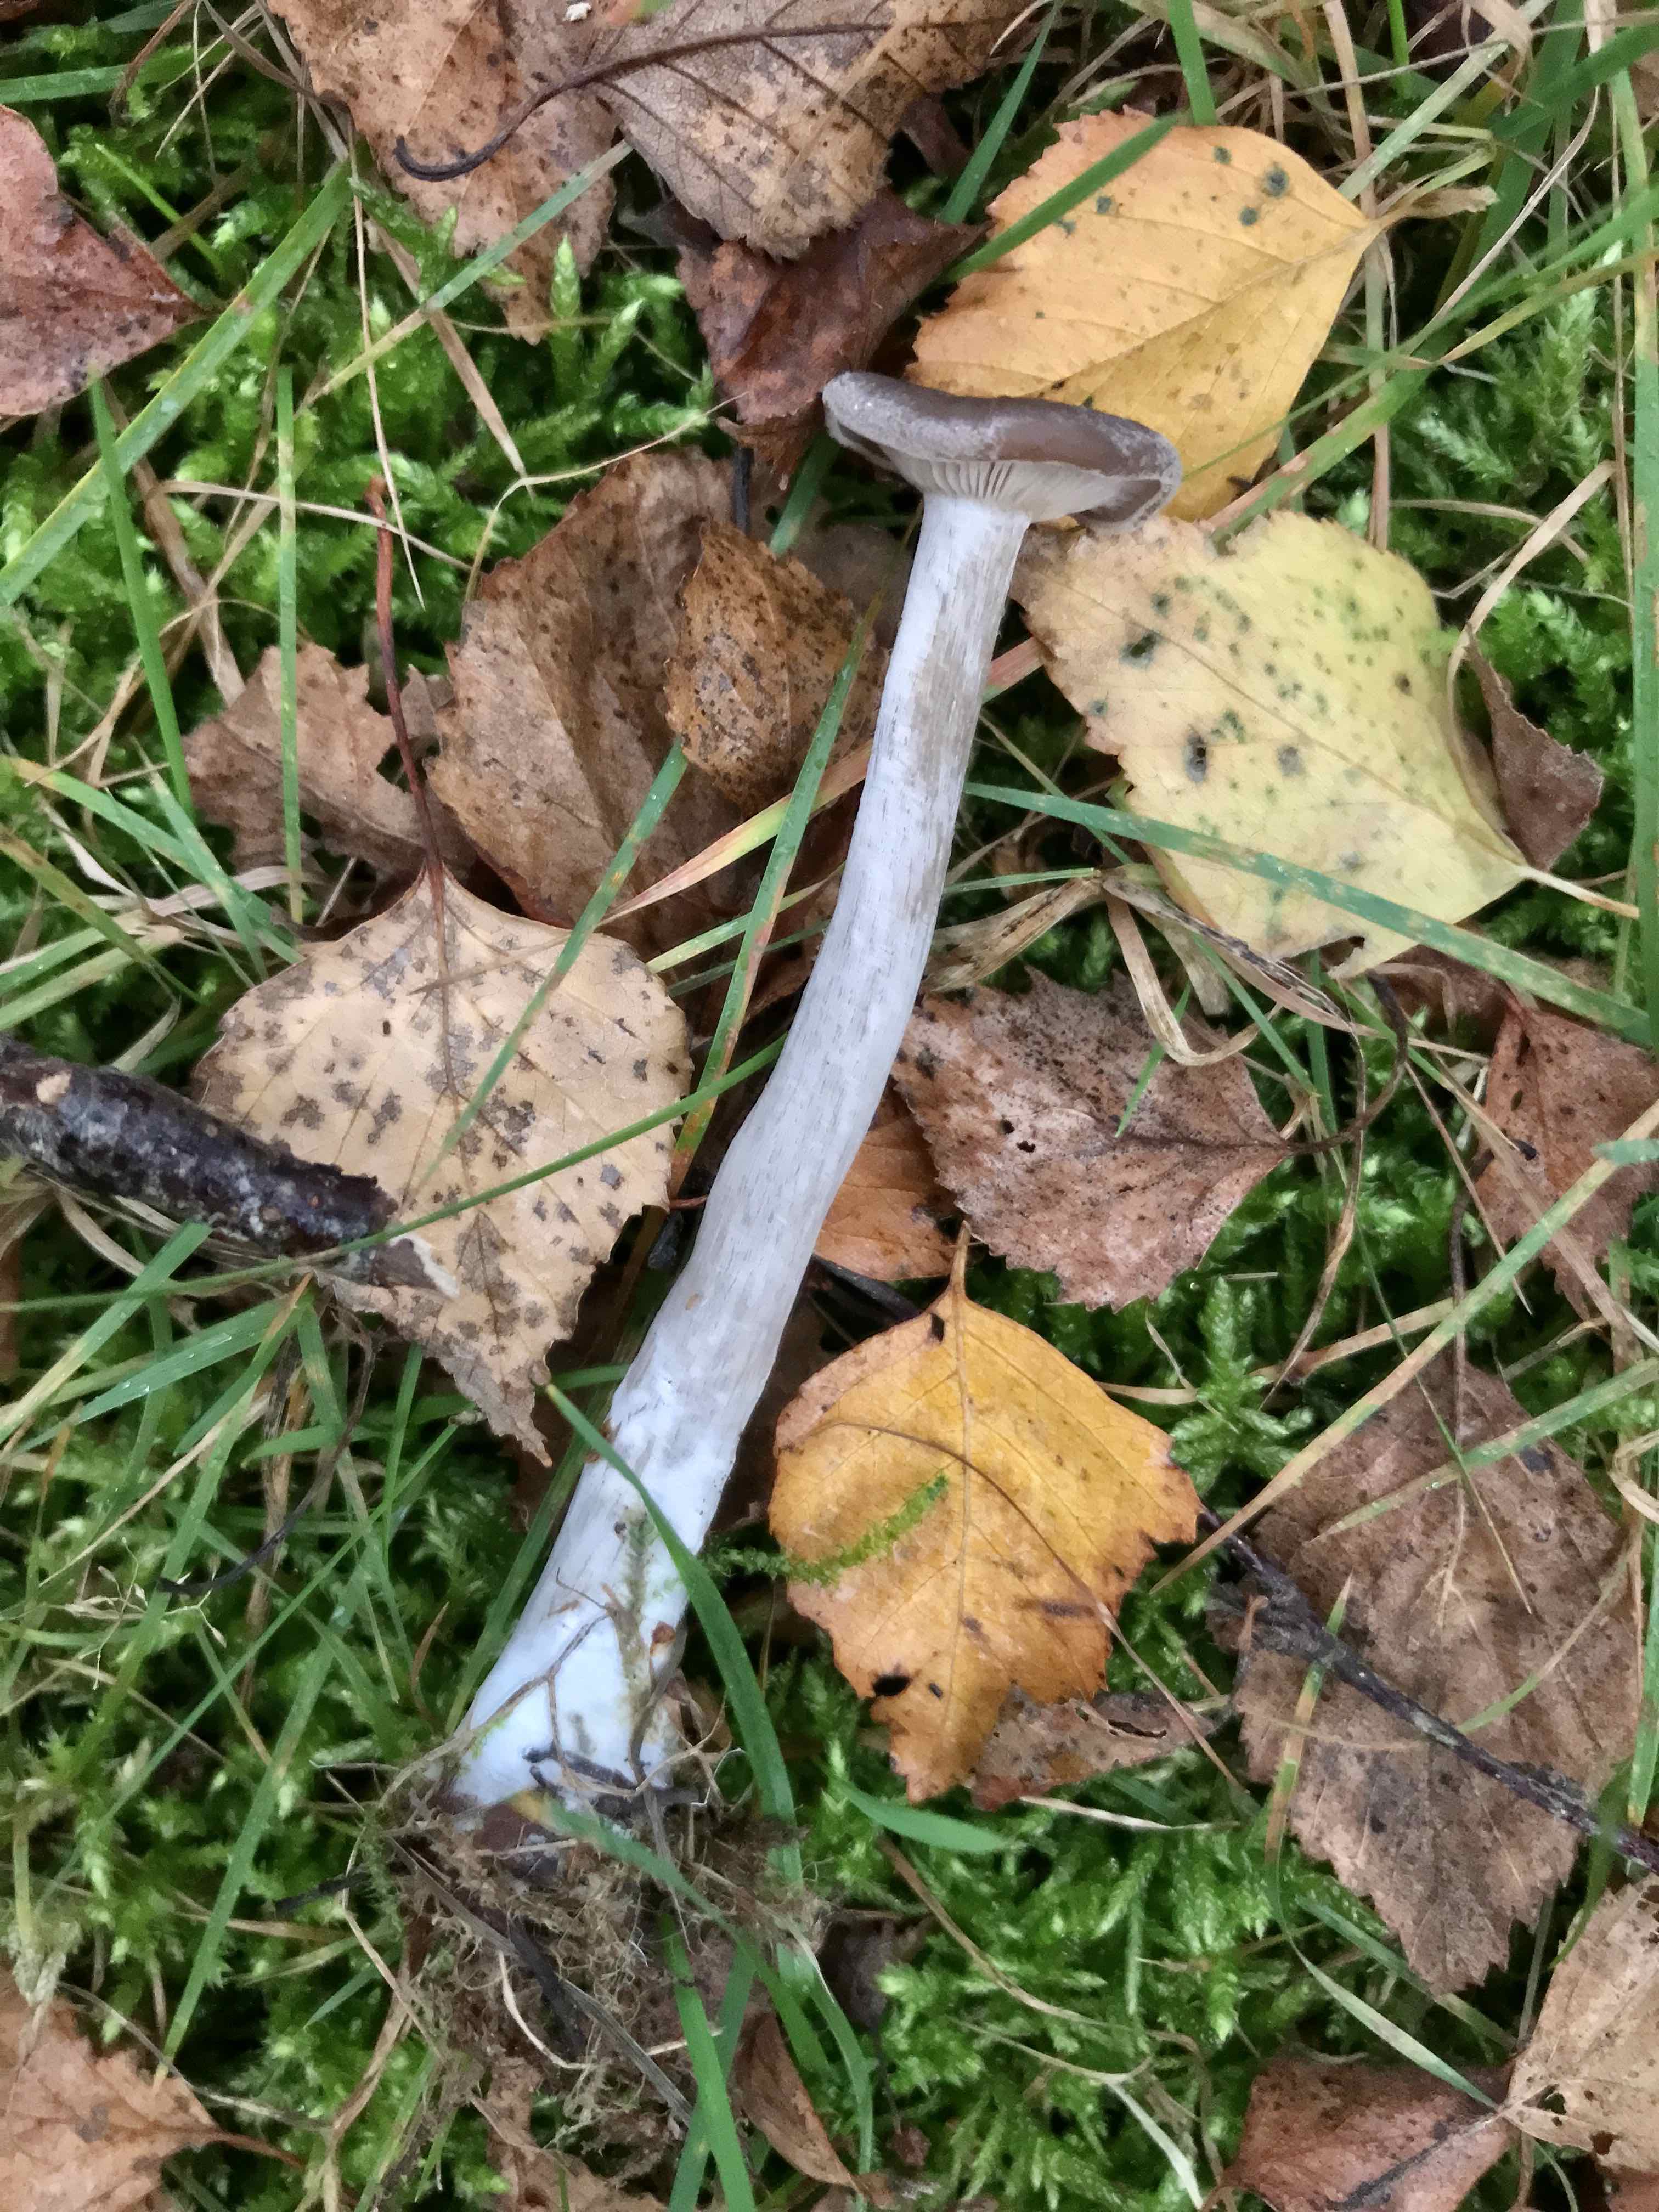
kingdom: Fungi
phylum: Basidiomycota
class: Agaricomycetes
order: Agaricales
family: Pseudoclitocybaceae
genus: Pseudoclitocybe
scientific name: Pseudoclitocybe cyathiformis
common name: almindelig bægertragthat
